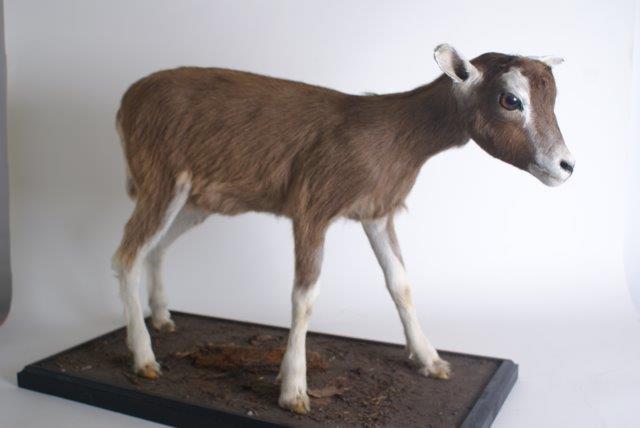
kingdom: Animalia
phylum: Chordata
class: Mammalia
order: Artiodactyla
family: Bovidae
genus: Capra
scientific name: Capra hircus
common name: Goat
